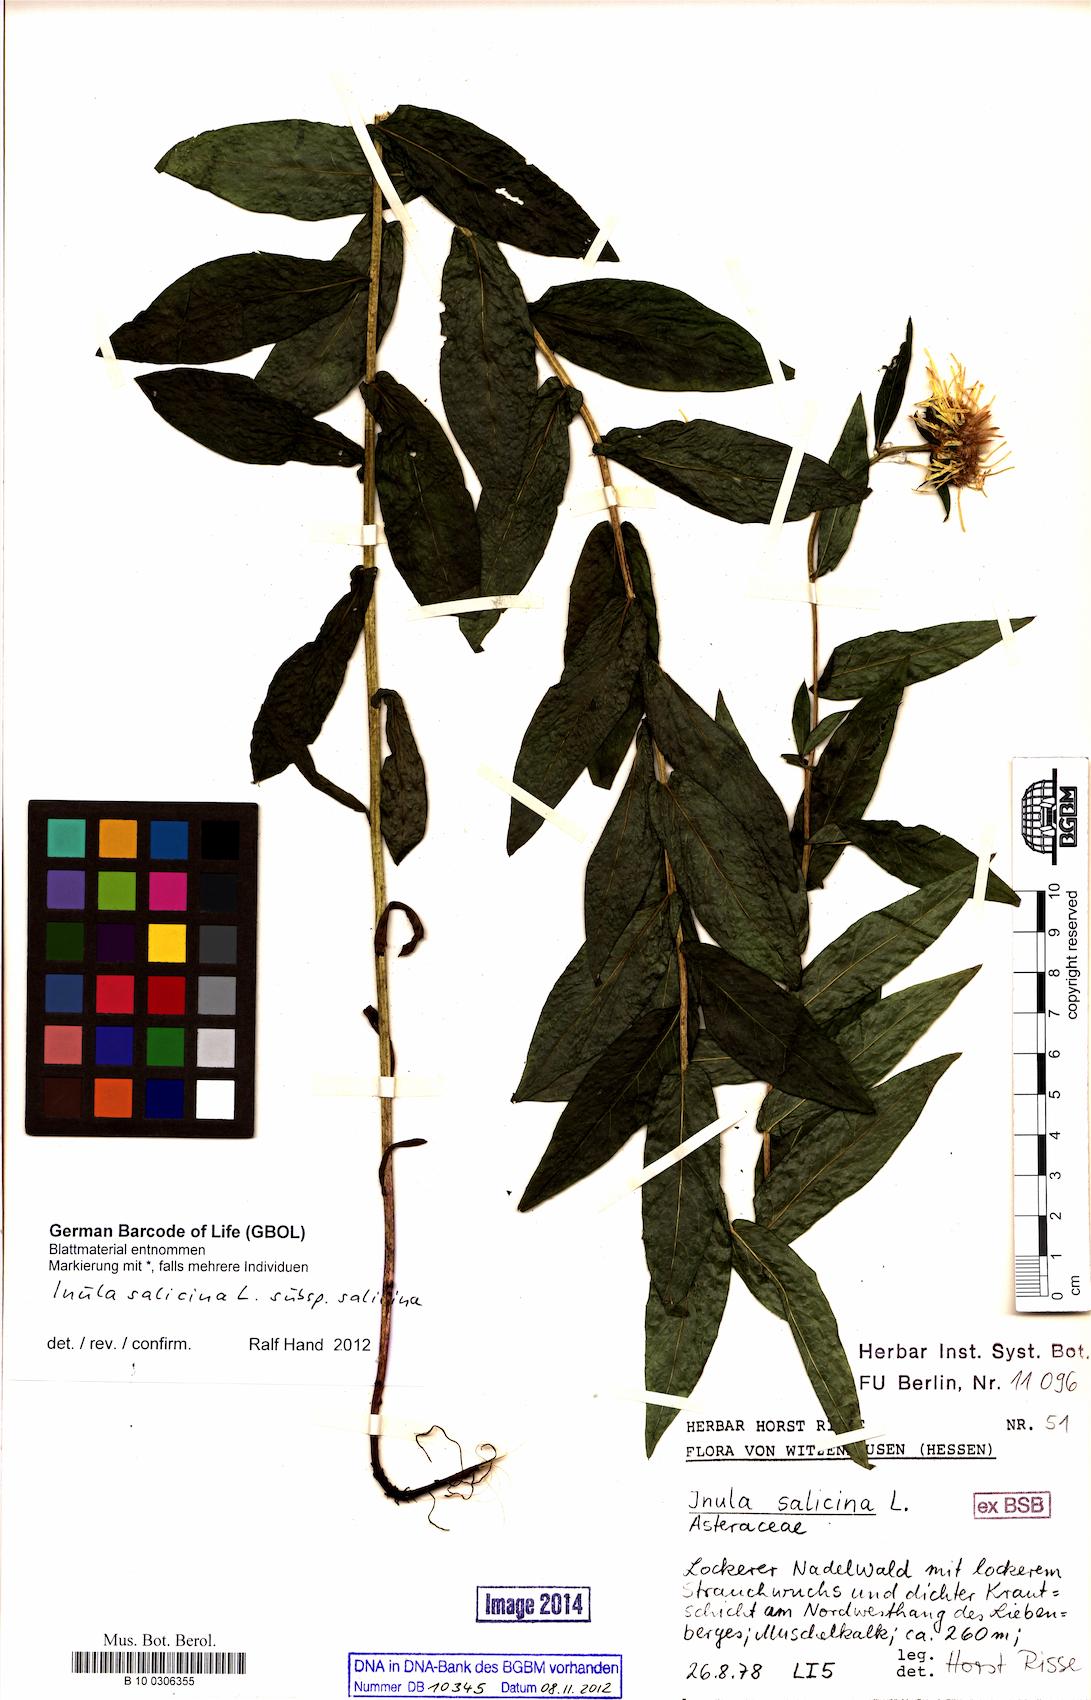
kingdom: Plantae
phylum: Tracheophyta
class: Magnoliopsida
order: Asterales
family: Asteraceae
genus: Pentanema
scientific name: Pentanema salicinum
